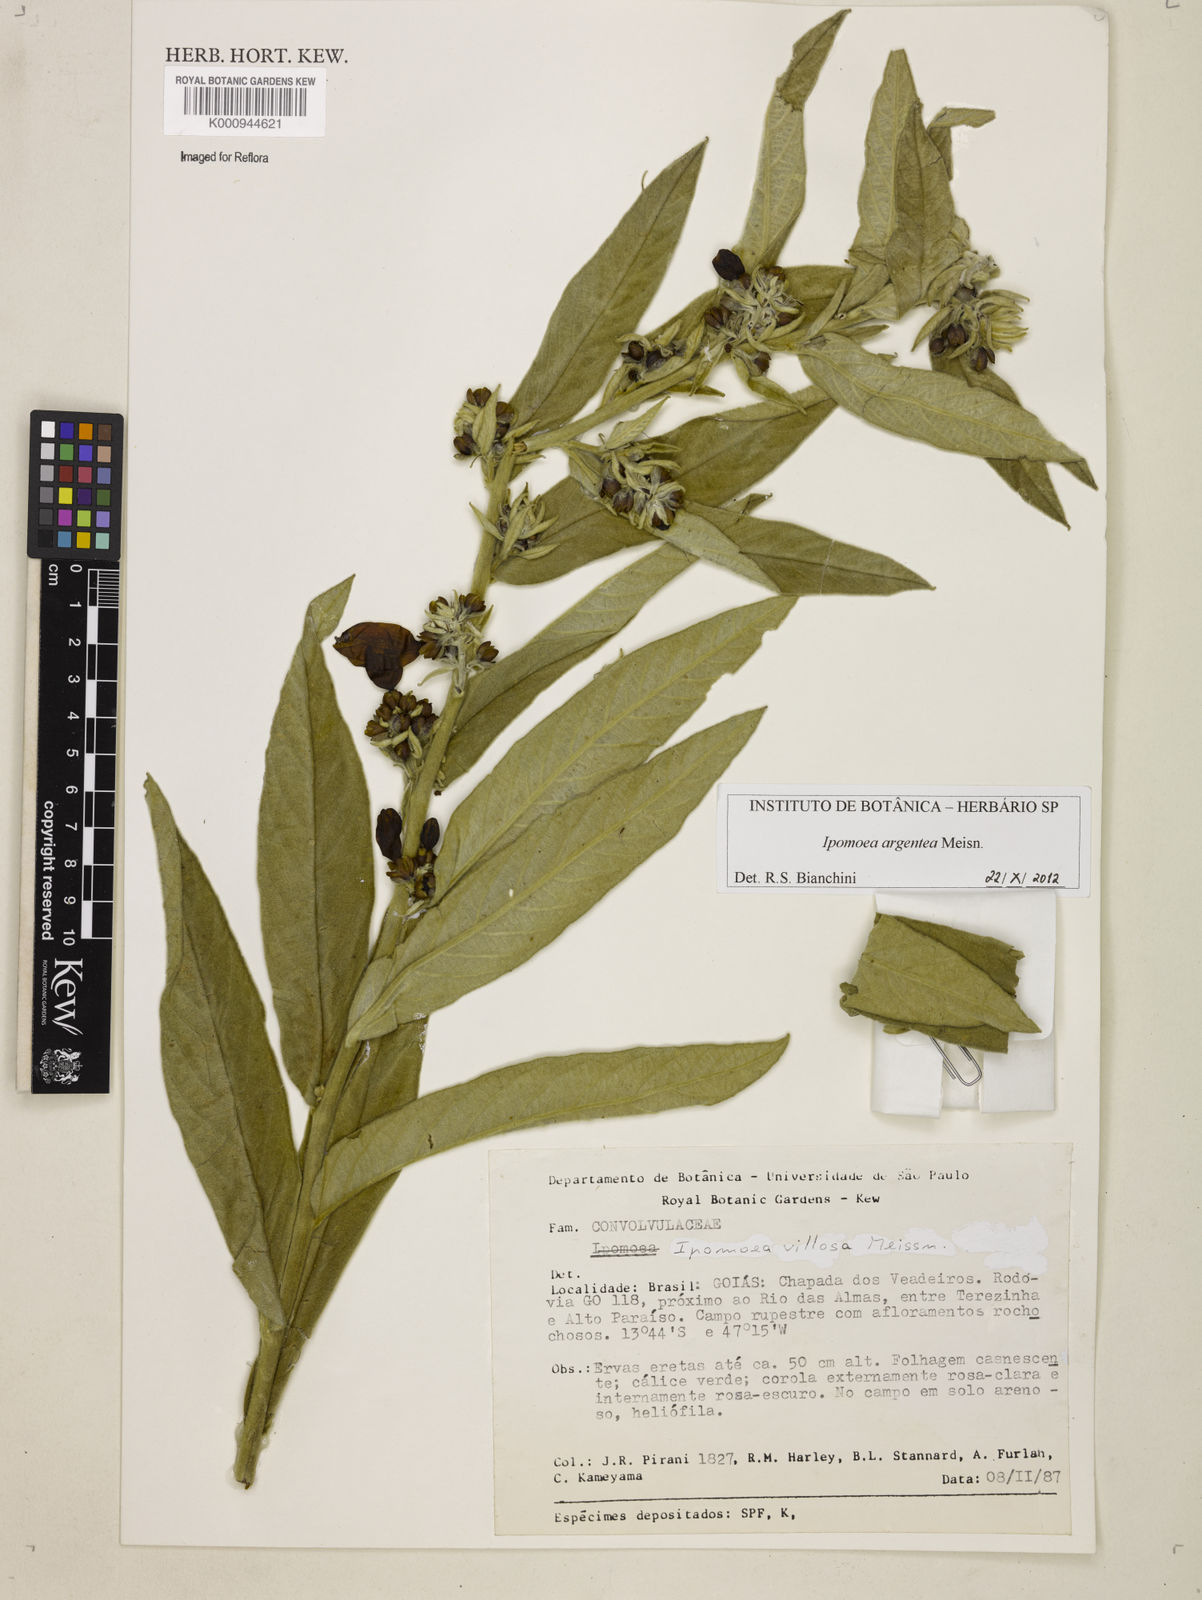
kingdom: Plantae
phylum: Tracheophyta
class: Magnoliopsida
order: Solanales
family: Convolvulaceae
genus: Ipomoea
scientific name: Ipomoea argentea
